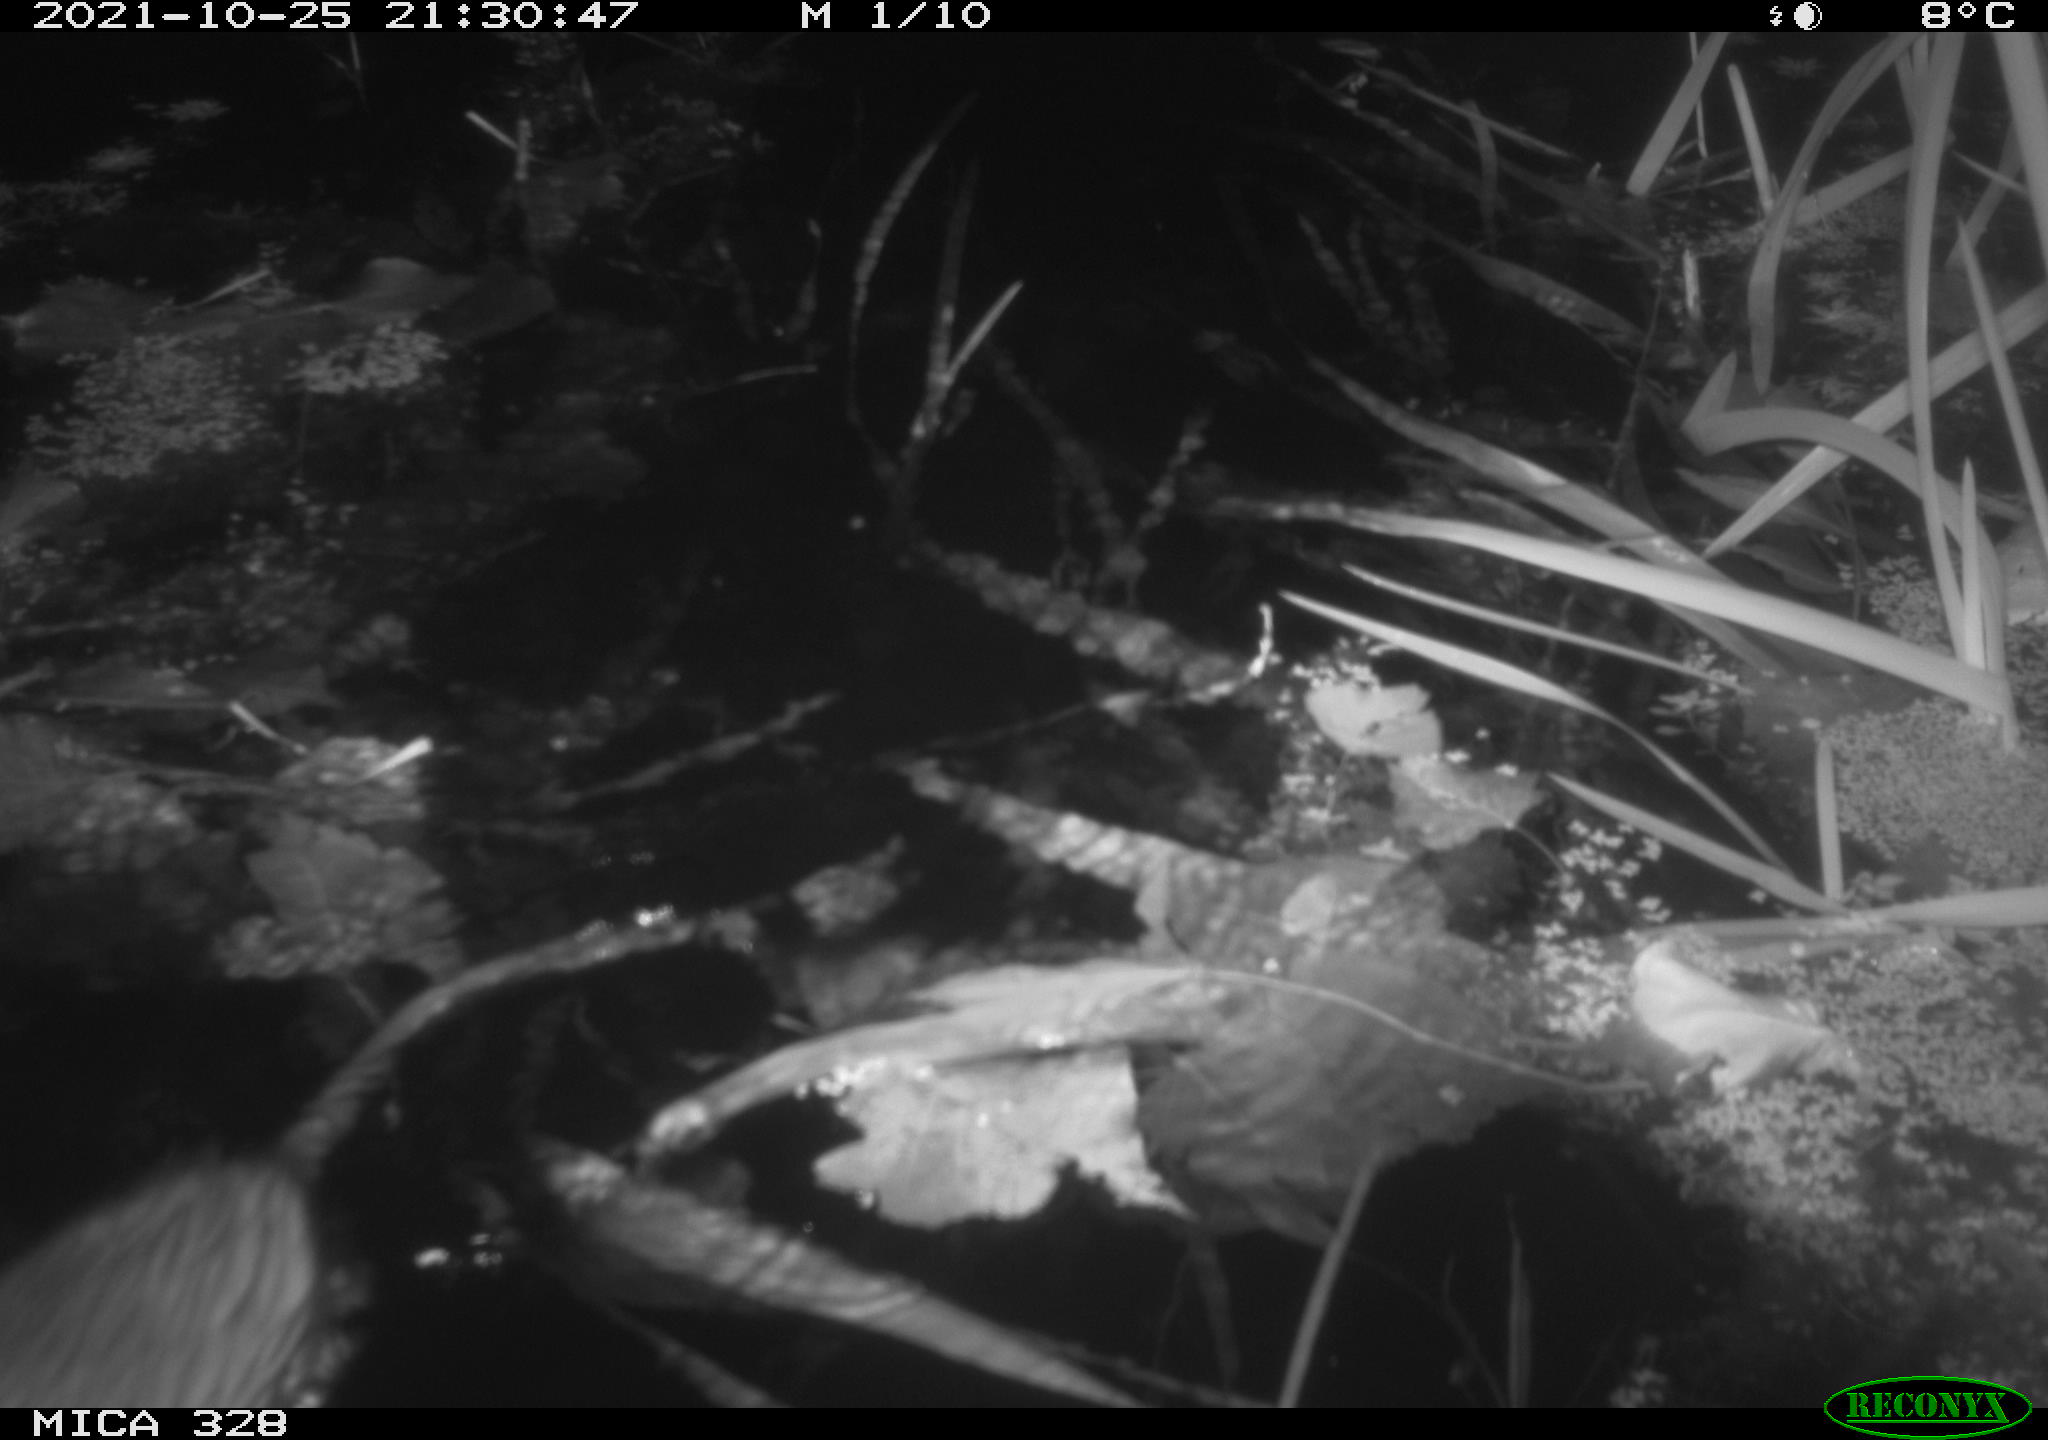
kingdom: Animalia
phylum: Chordata
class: Mammalia
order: Rodentia
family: Cricetidae
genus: Ondatra
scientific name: Ondatra zibethicus
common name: Muskrat
